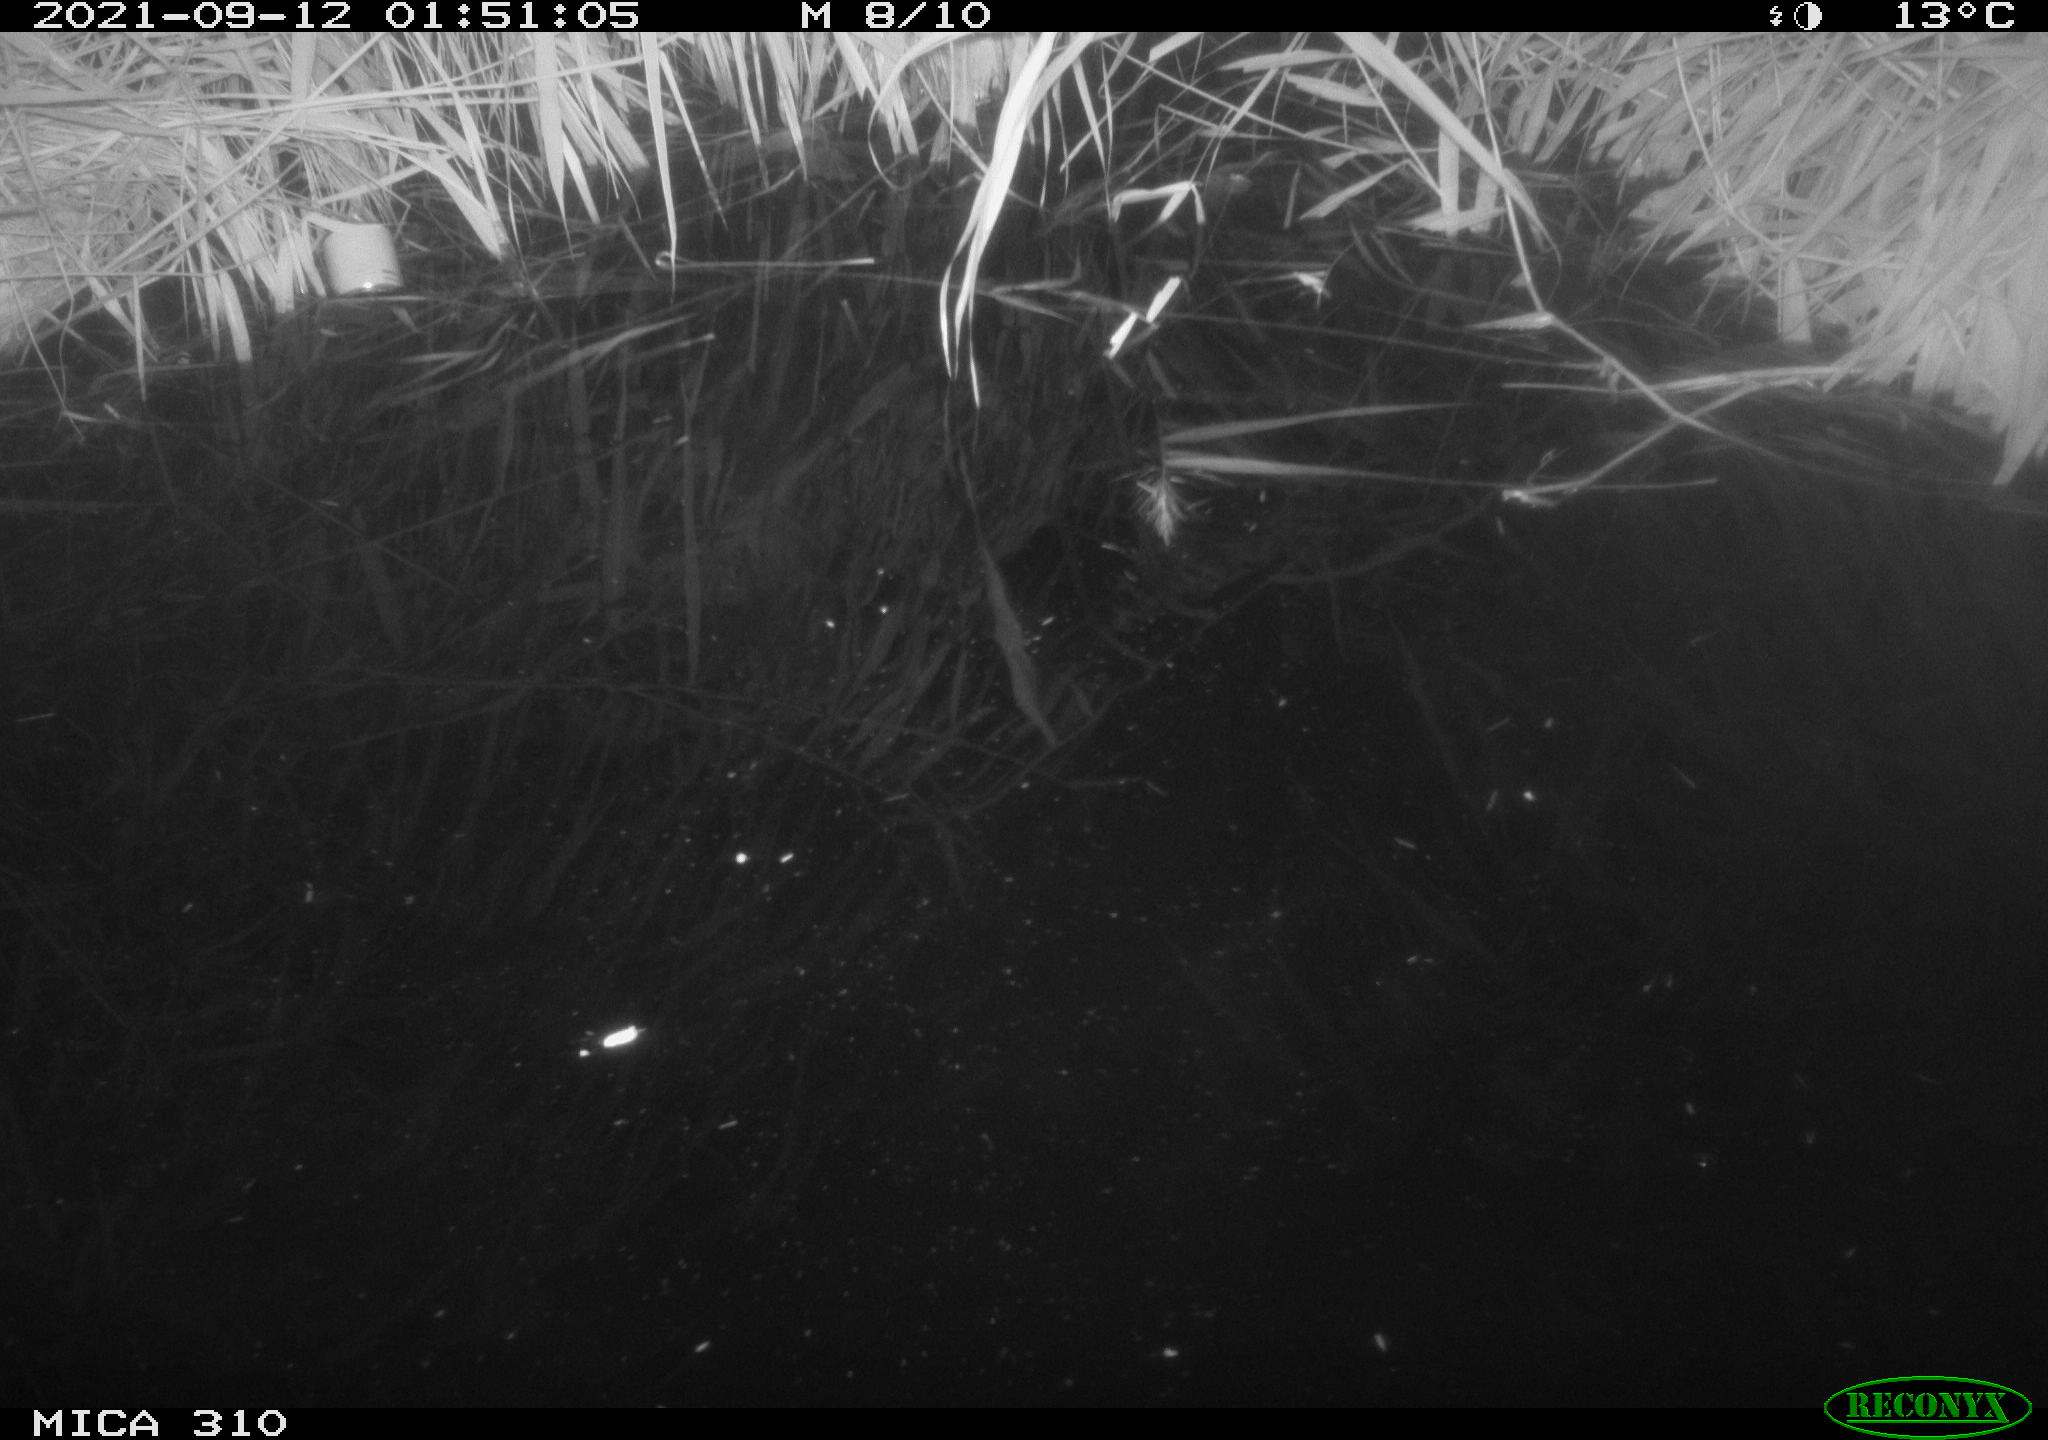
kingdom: Animalia
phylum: Chordata
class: Aves
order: Anseriformes
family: Anatidae
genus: Anas
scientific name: Anas platyrhynchos
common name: Mallard
